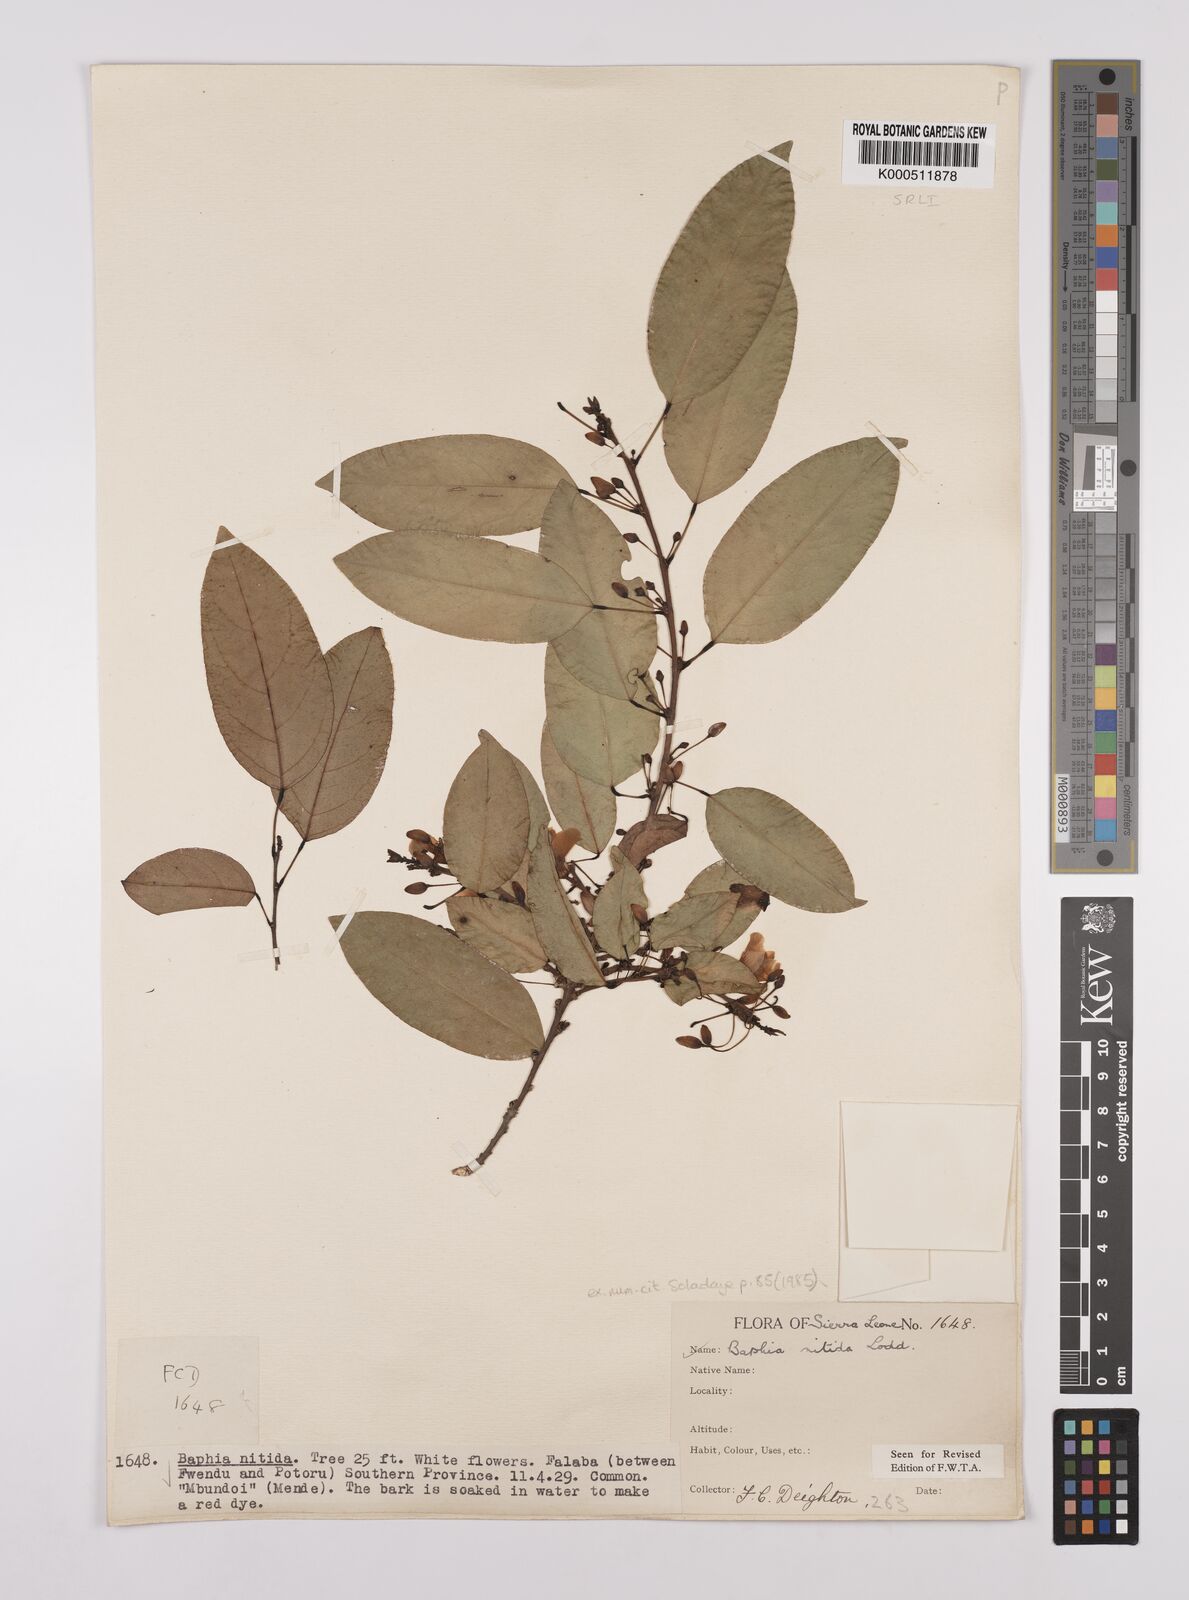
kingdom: Plantae
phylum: Tracheophyta
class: Magnoliopsida
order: Fabales
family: Fabaceae
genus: Baphia
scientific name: Baphia nitida
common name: Camwood
